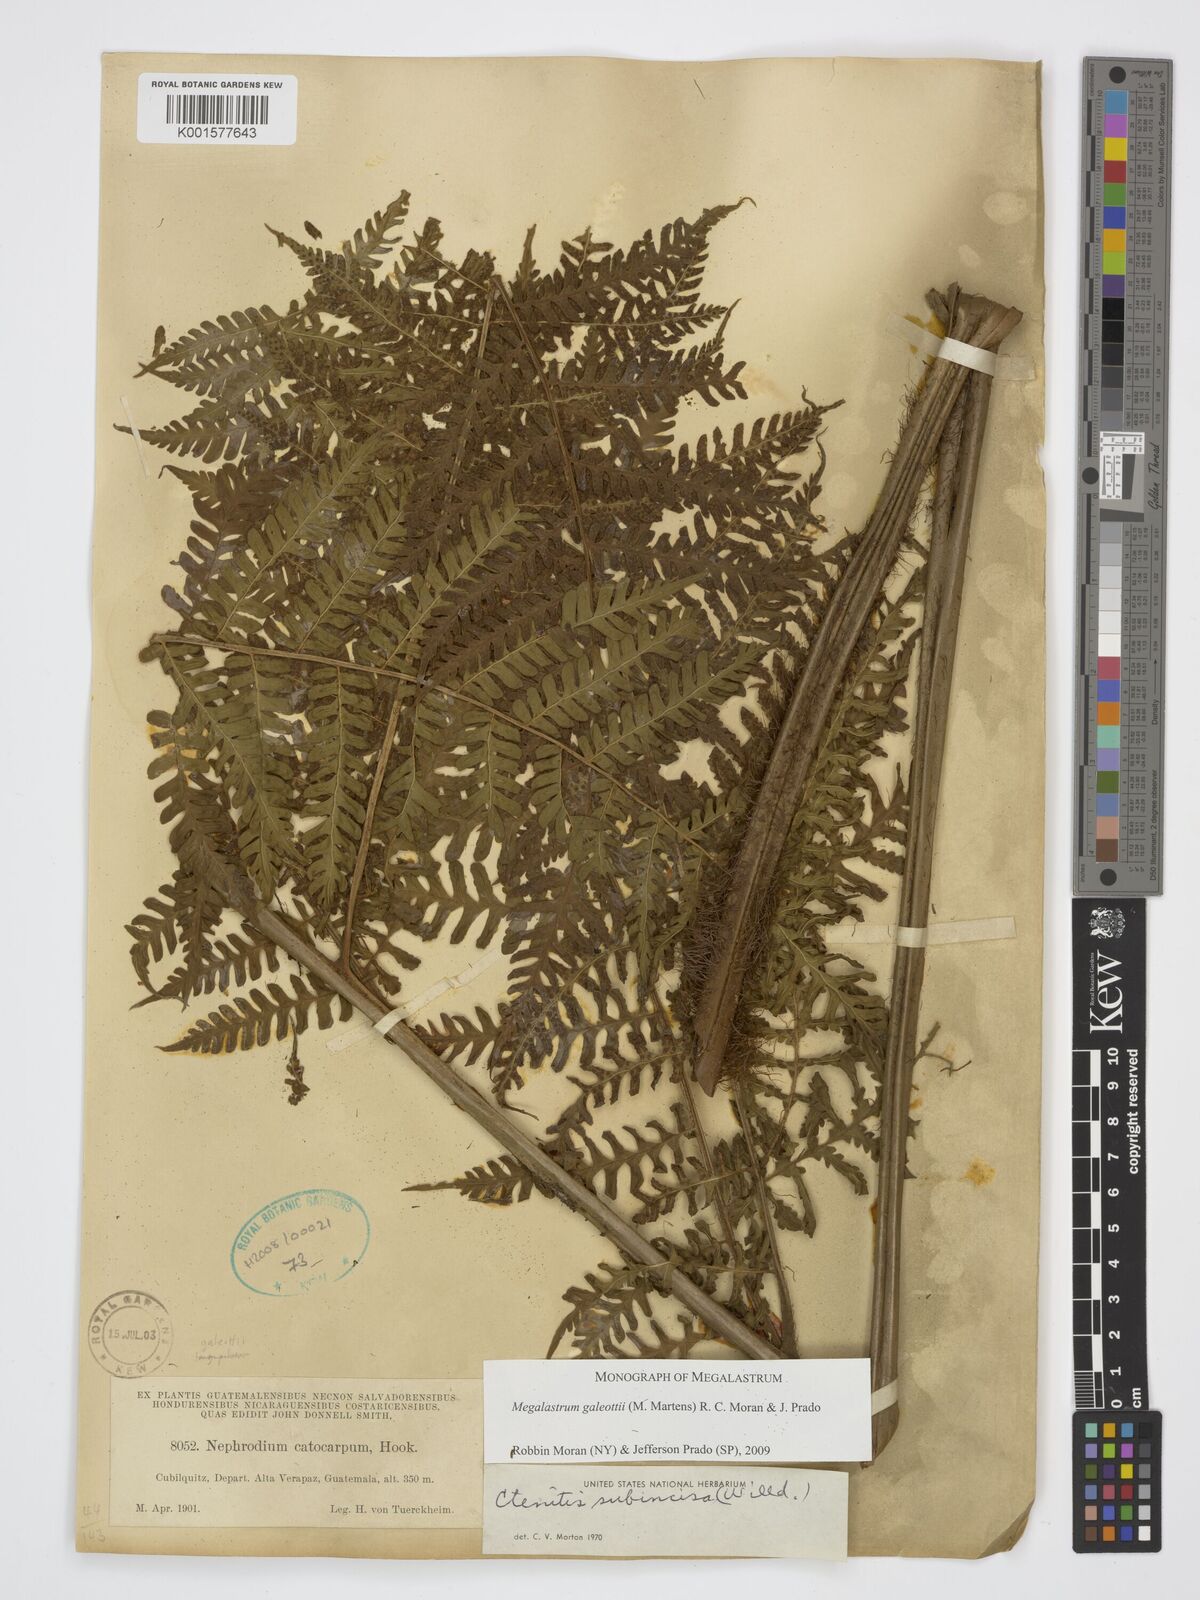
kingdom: Plantae
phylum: Tracheophyta
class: Polypodiopsida
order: Polypodiales
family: Dryopteridaceae
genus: Megalastrum
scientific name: Megalastrum galeottii
